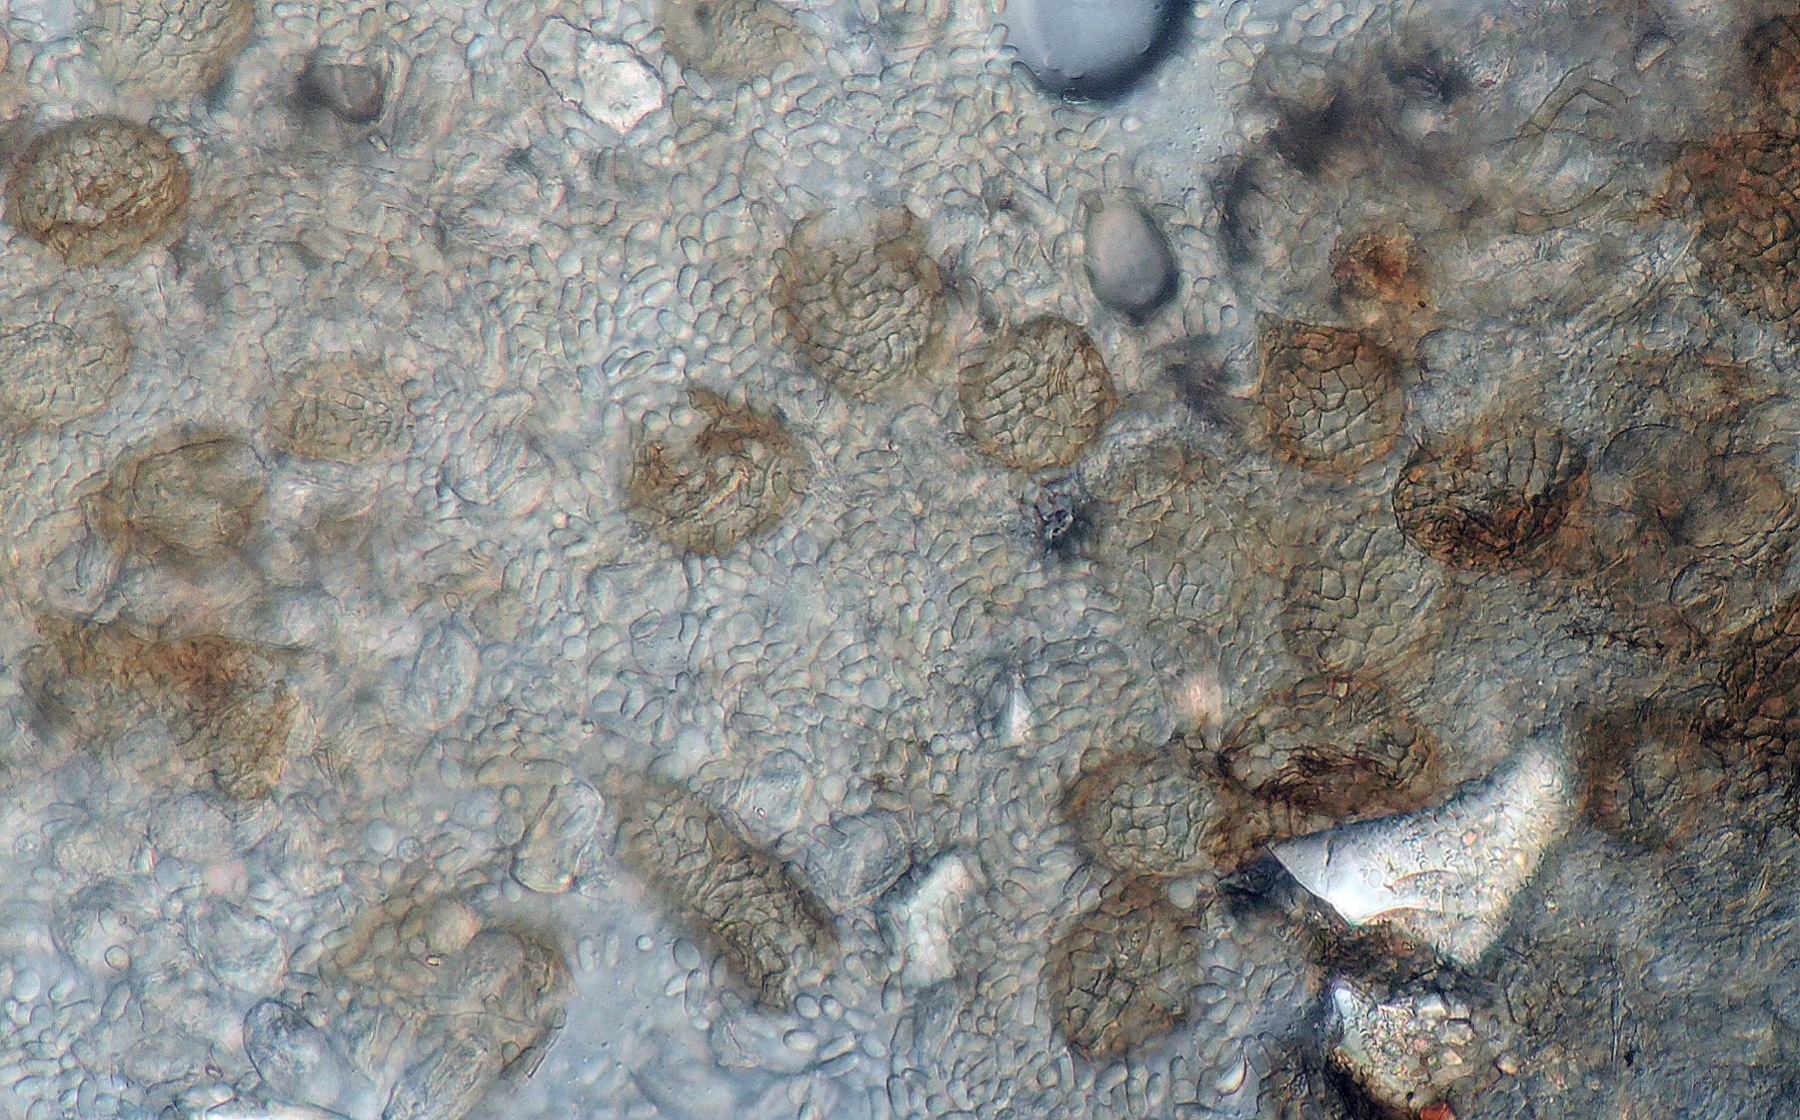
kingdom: Fungi
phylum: Ascomycota
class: Dothideomycetes
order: Pleosporales
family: Phaeosphaeriaceae
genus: Ampelomyces
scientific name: Ampelomyces quisqualis
